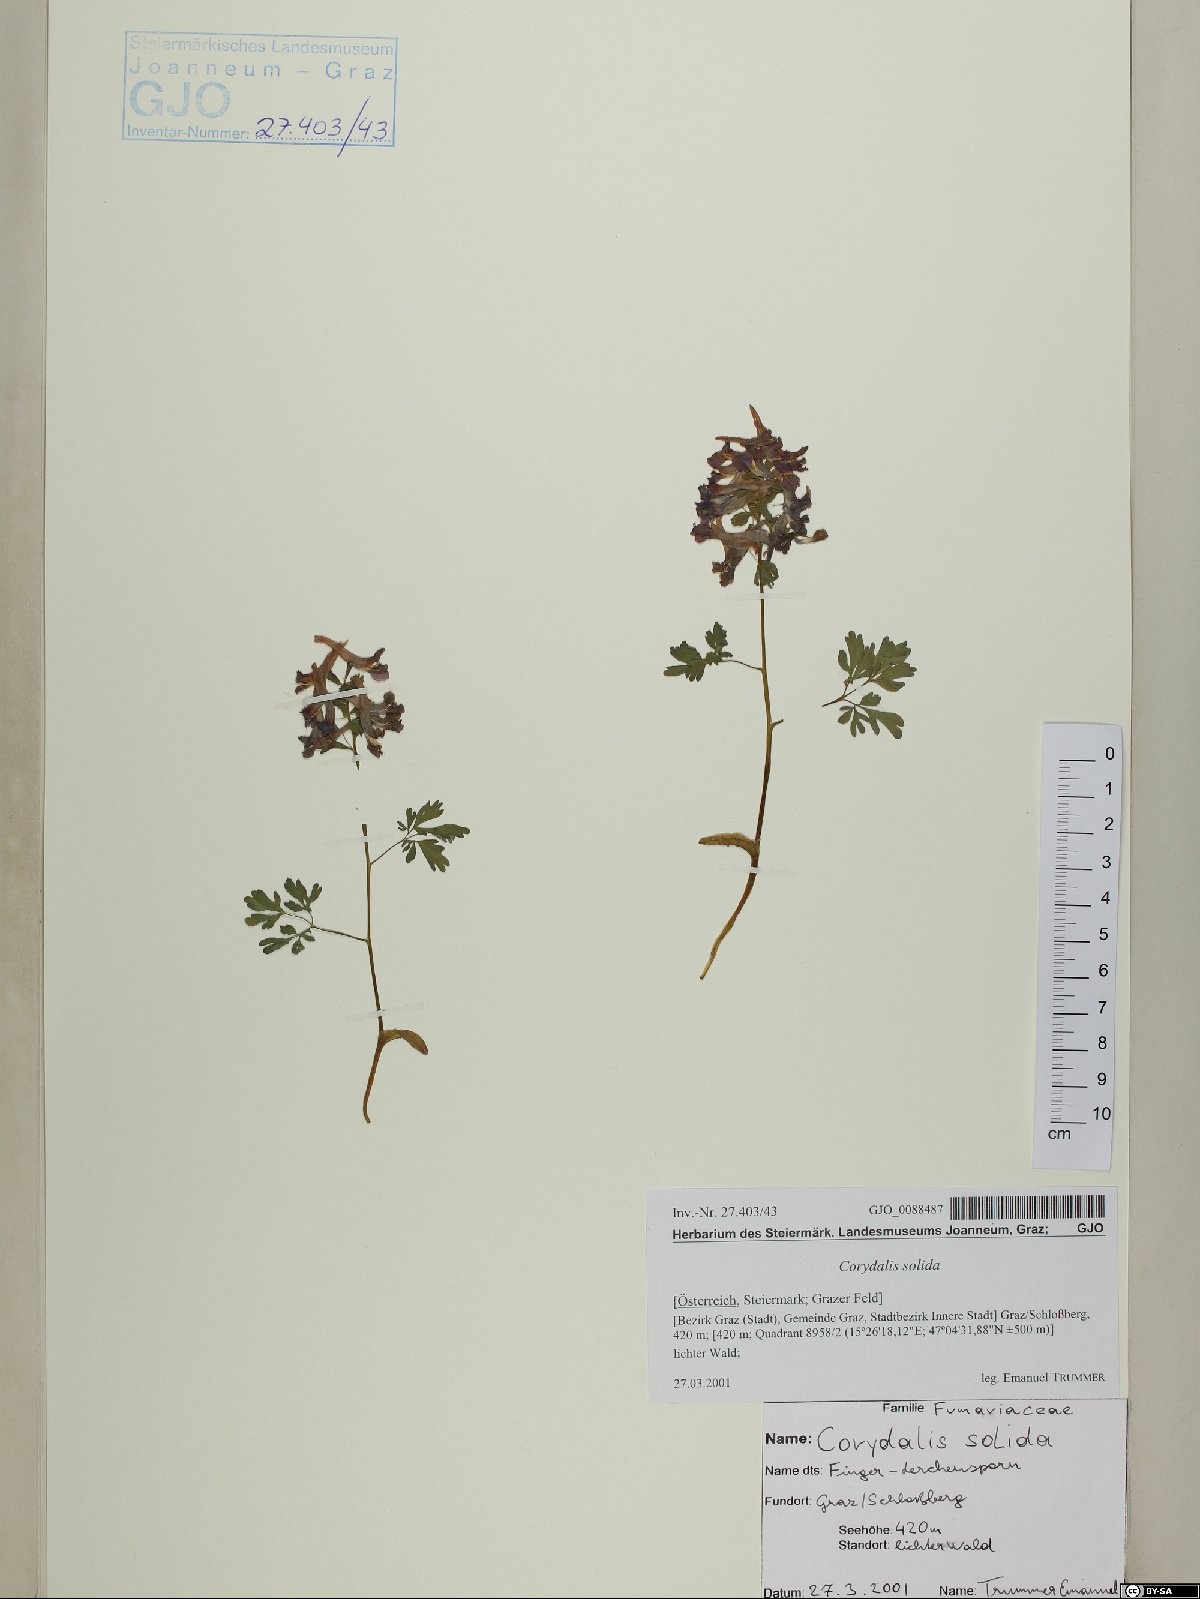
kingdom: Plantae
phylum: Tracheophyta
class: Magnoliopsida
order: Ranunculales
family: Papaveraceae
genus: Corydalis
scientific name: Corydalis solida
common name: Bird-in-a-bush
